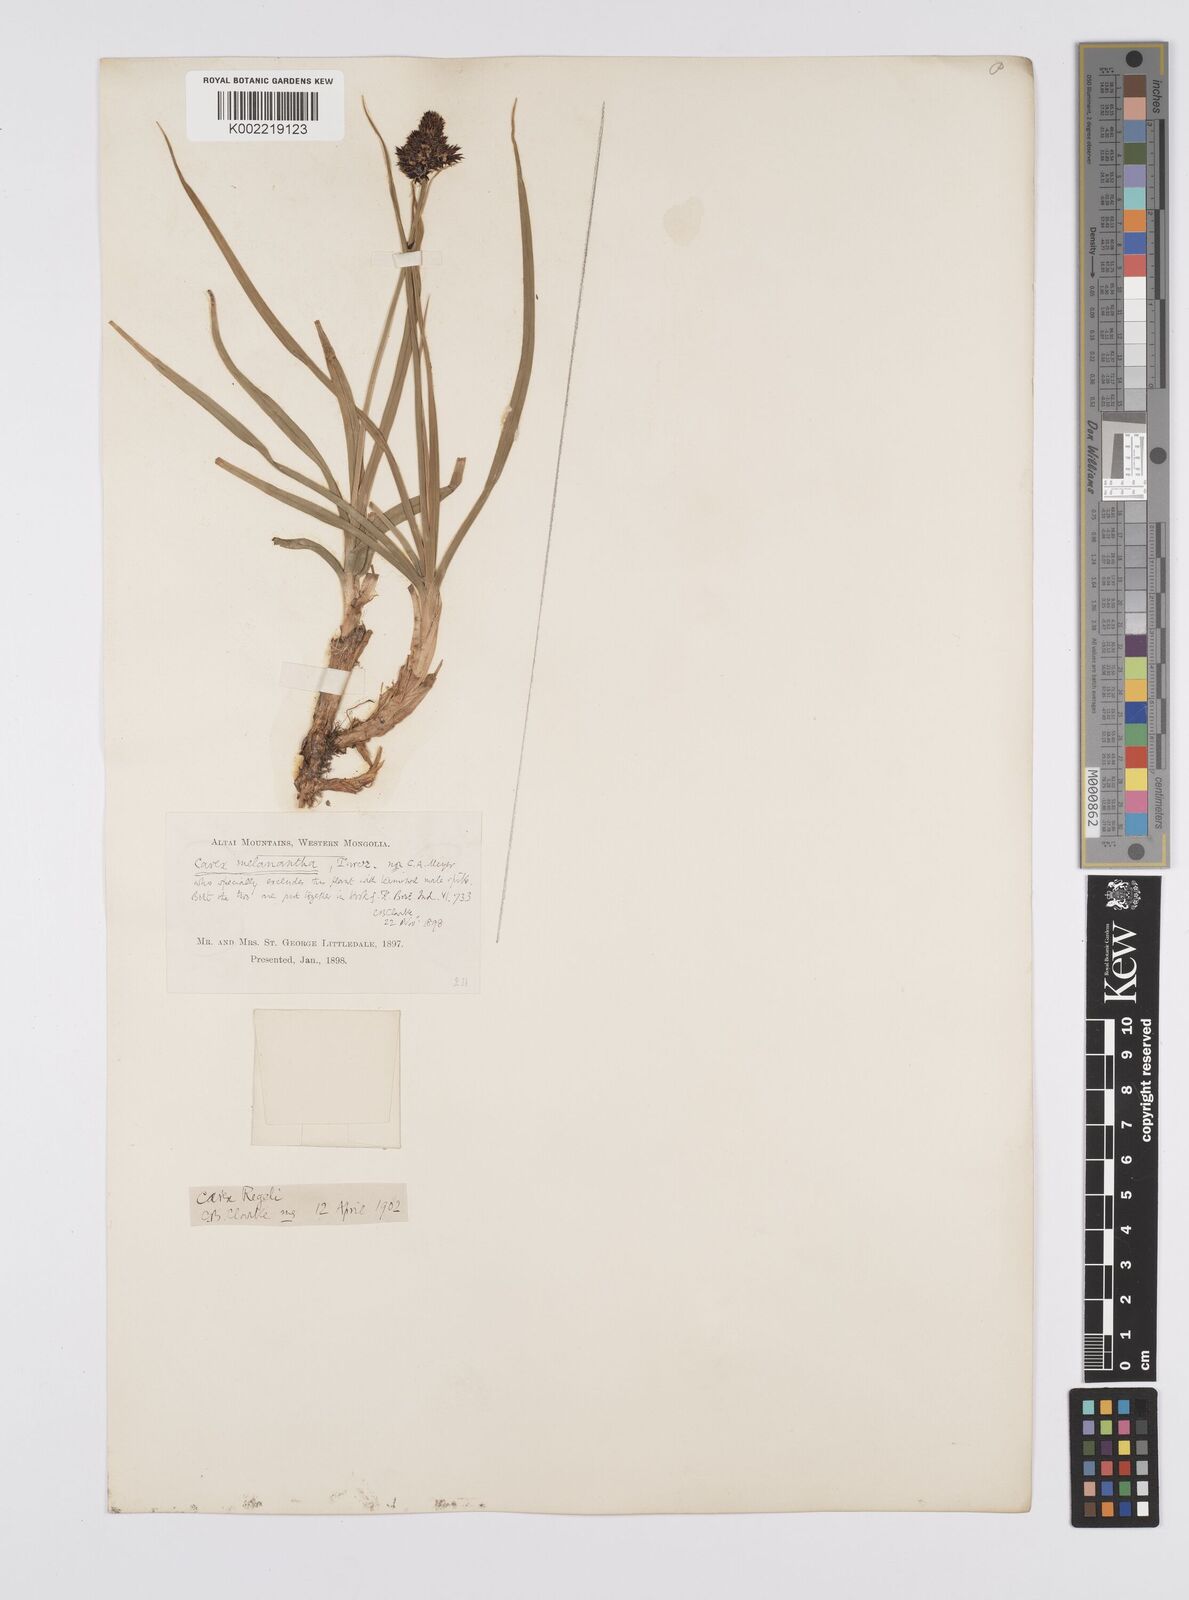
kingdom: Plantae
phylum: Tracheophyta
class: Liliopsida
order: Poales
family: Cyperaceae
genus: Carex
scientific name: Carex melanantha
